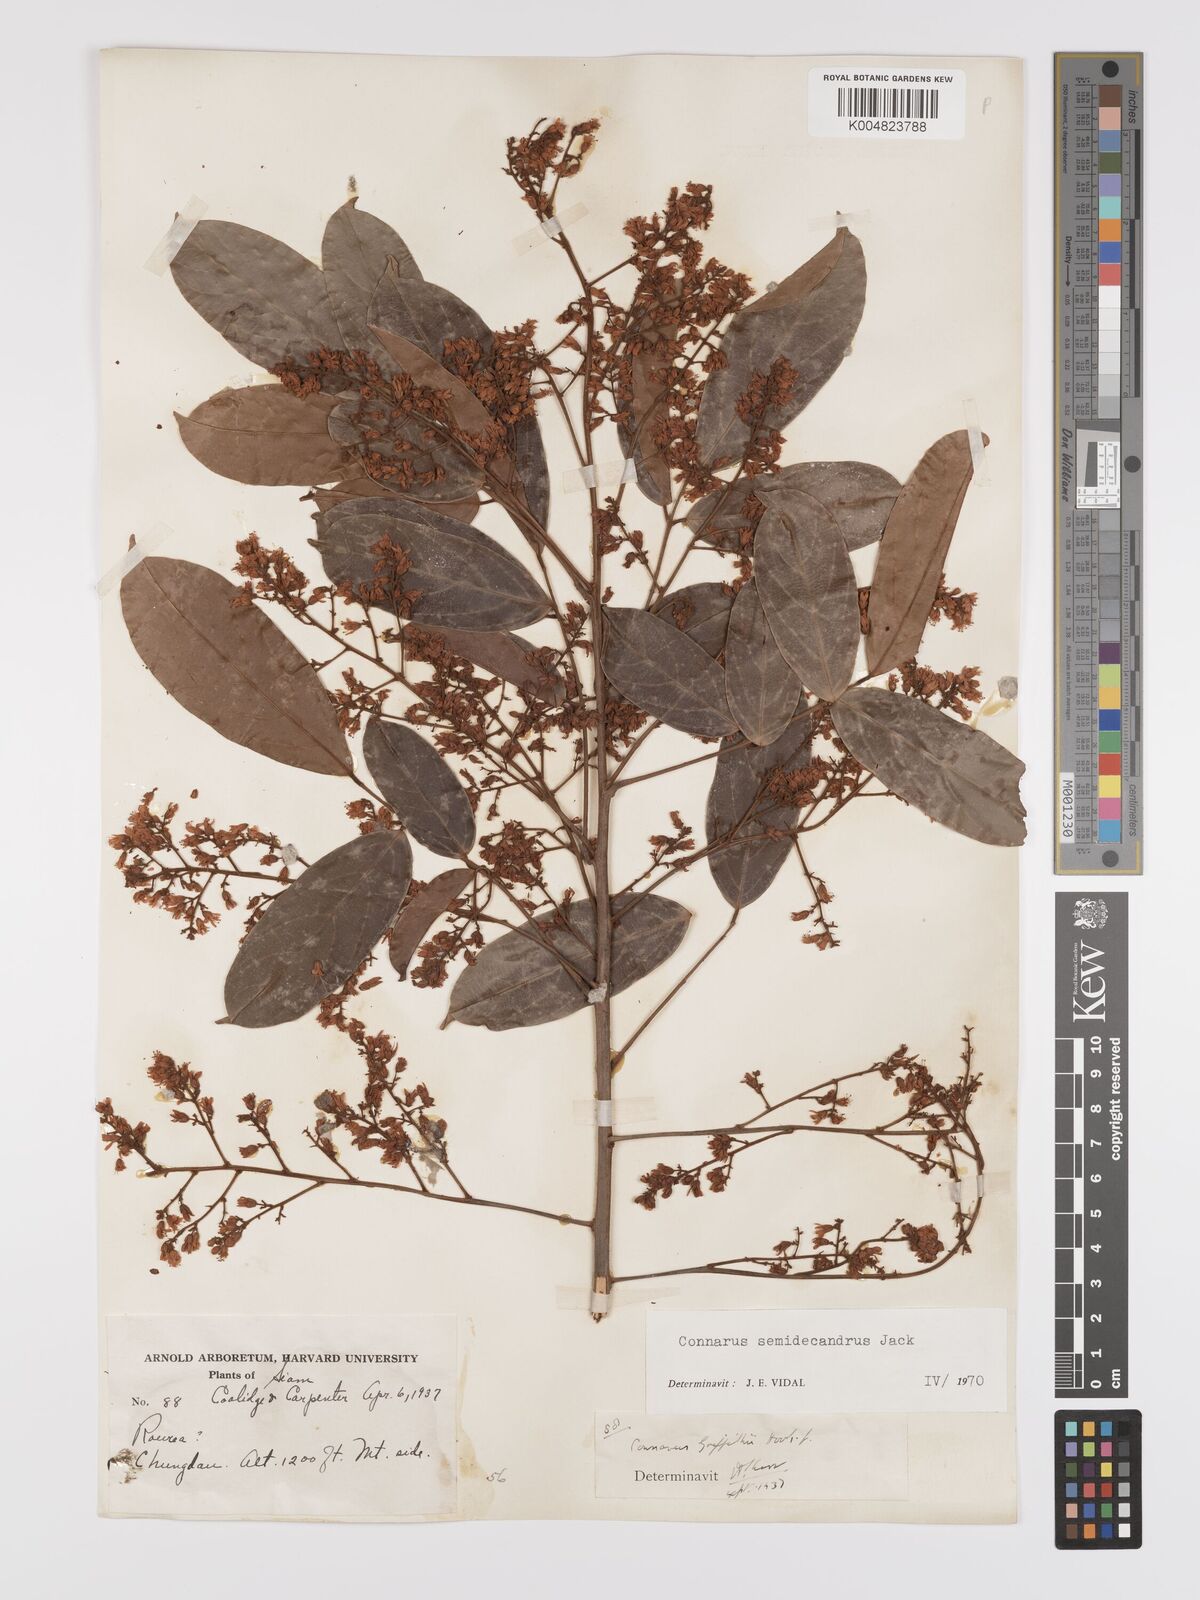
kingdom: Plantae
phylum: Tracheophyta
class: Magnoliopsida
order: Oxalidales
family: Connaraceae
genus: Connarus
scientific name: Connarus semidecandrus
